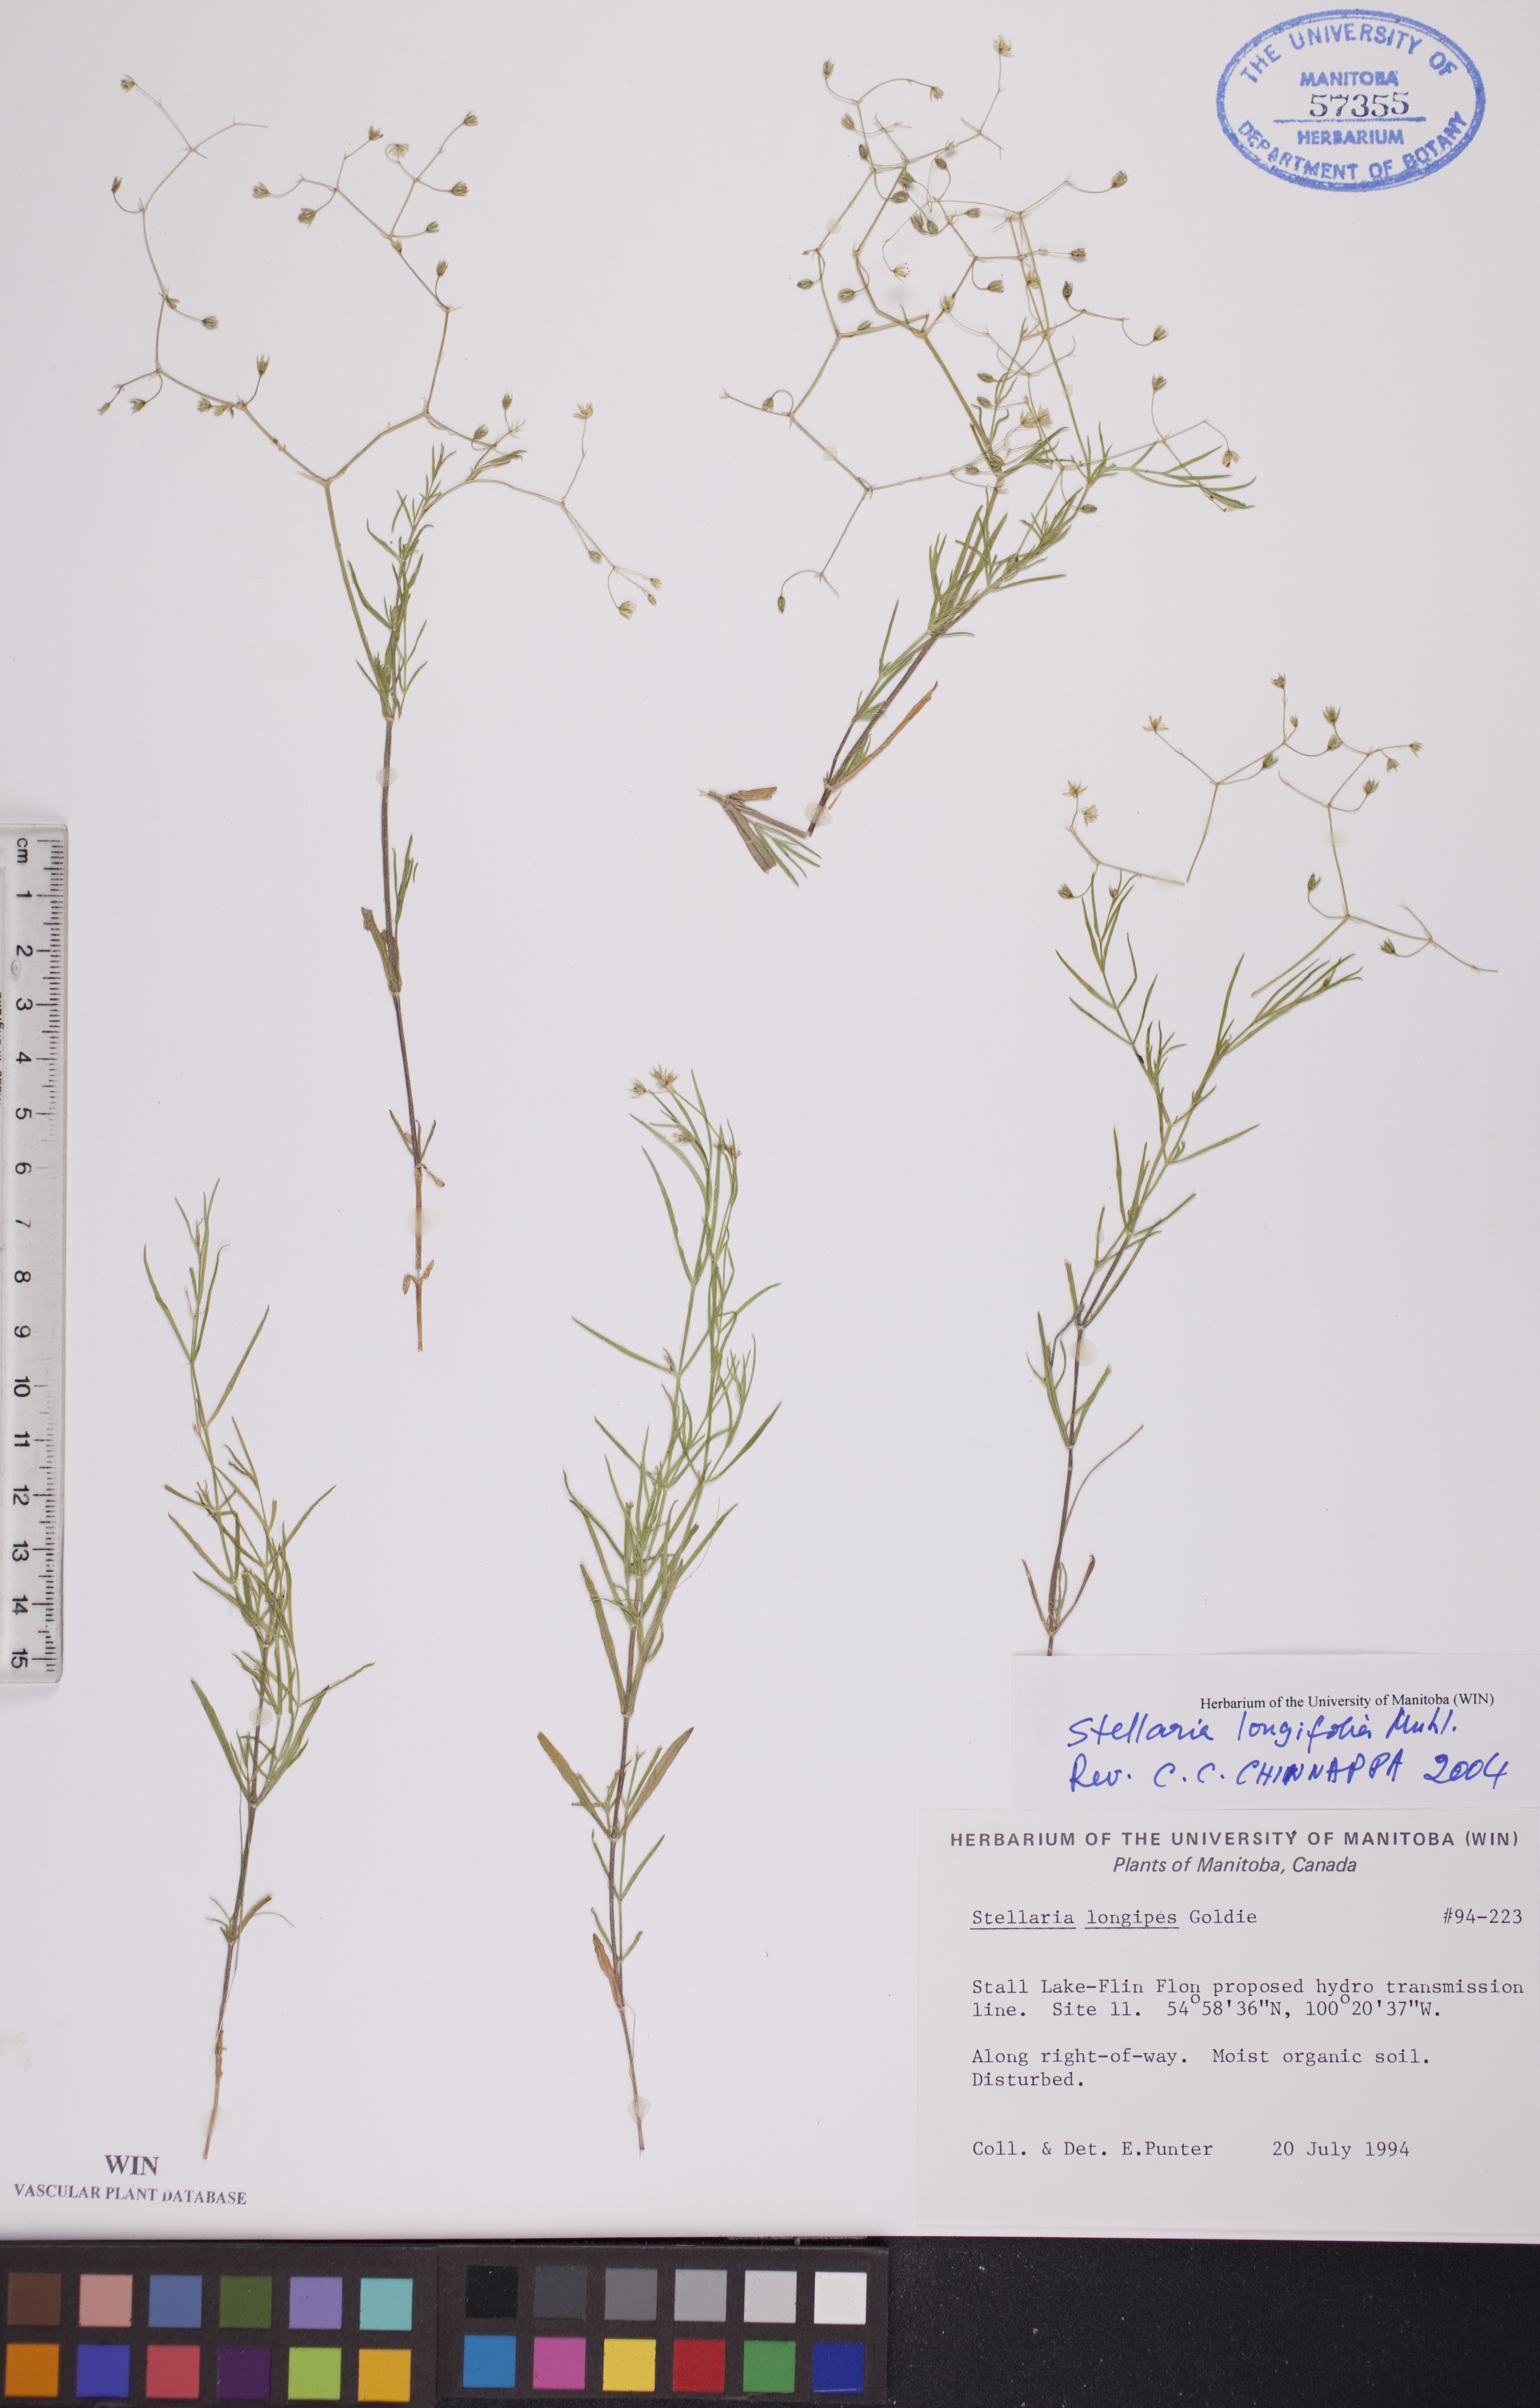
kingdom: Plantae
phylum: Tracheophyta
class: Magnoliopsida
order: Caryophyllales
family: Caryophyllaceae
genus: Stellaria
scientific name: Stellaria longifolia
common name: Long-leaved chickweed
